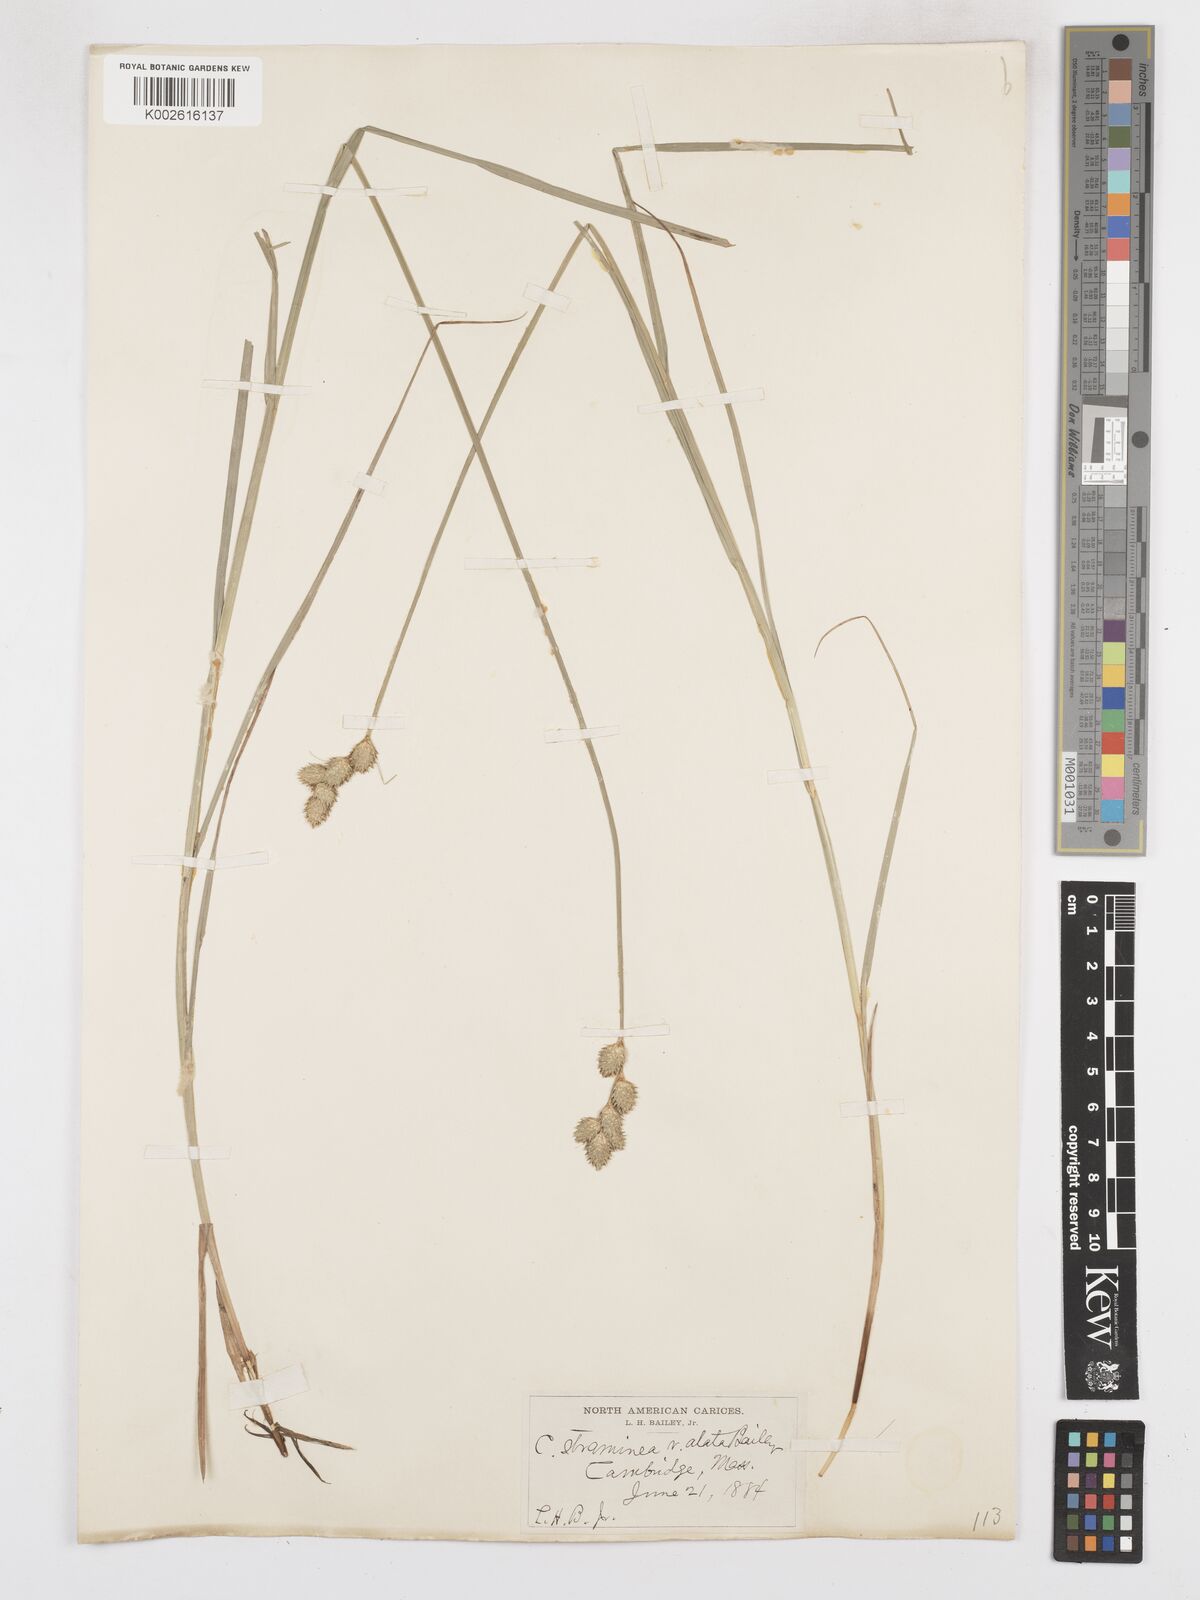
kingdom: Plantae
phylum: Tracheophyta
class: Liliopsida
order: Poales
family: Cyperaceae
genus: Carex
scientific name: Carex brevior
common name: Brevior sedge
